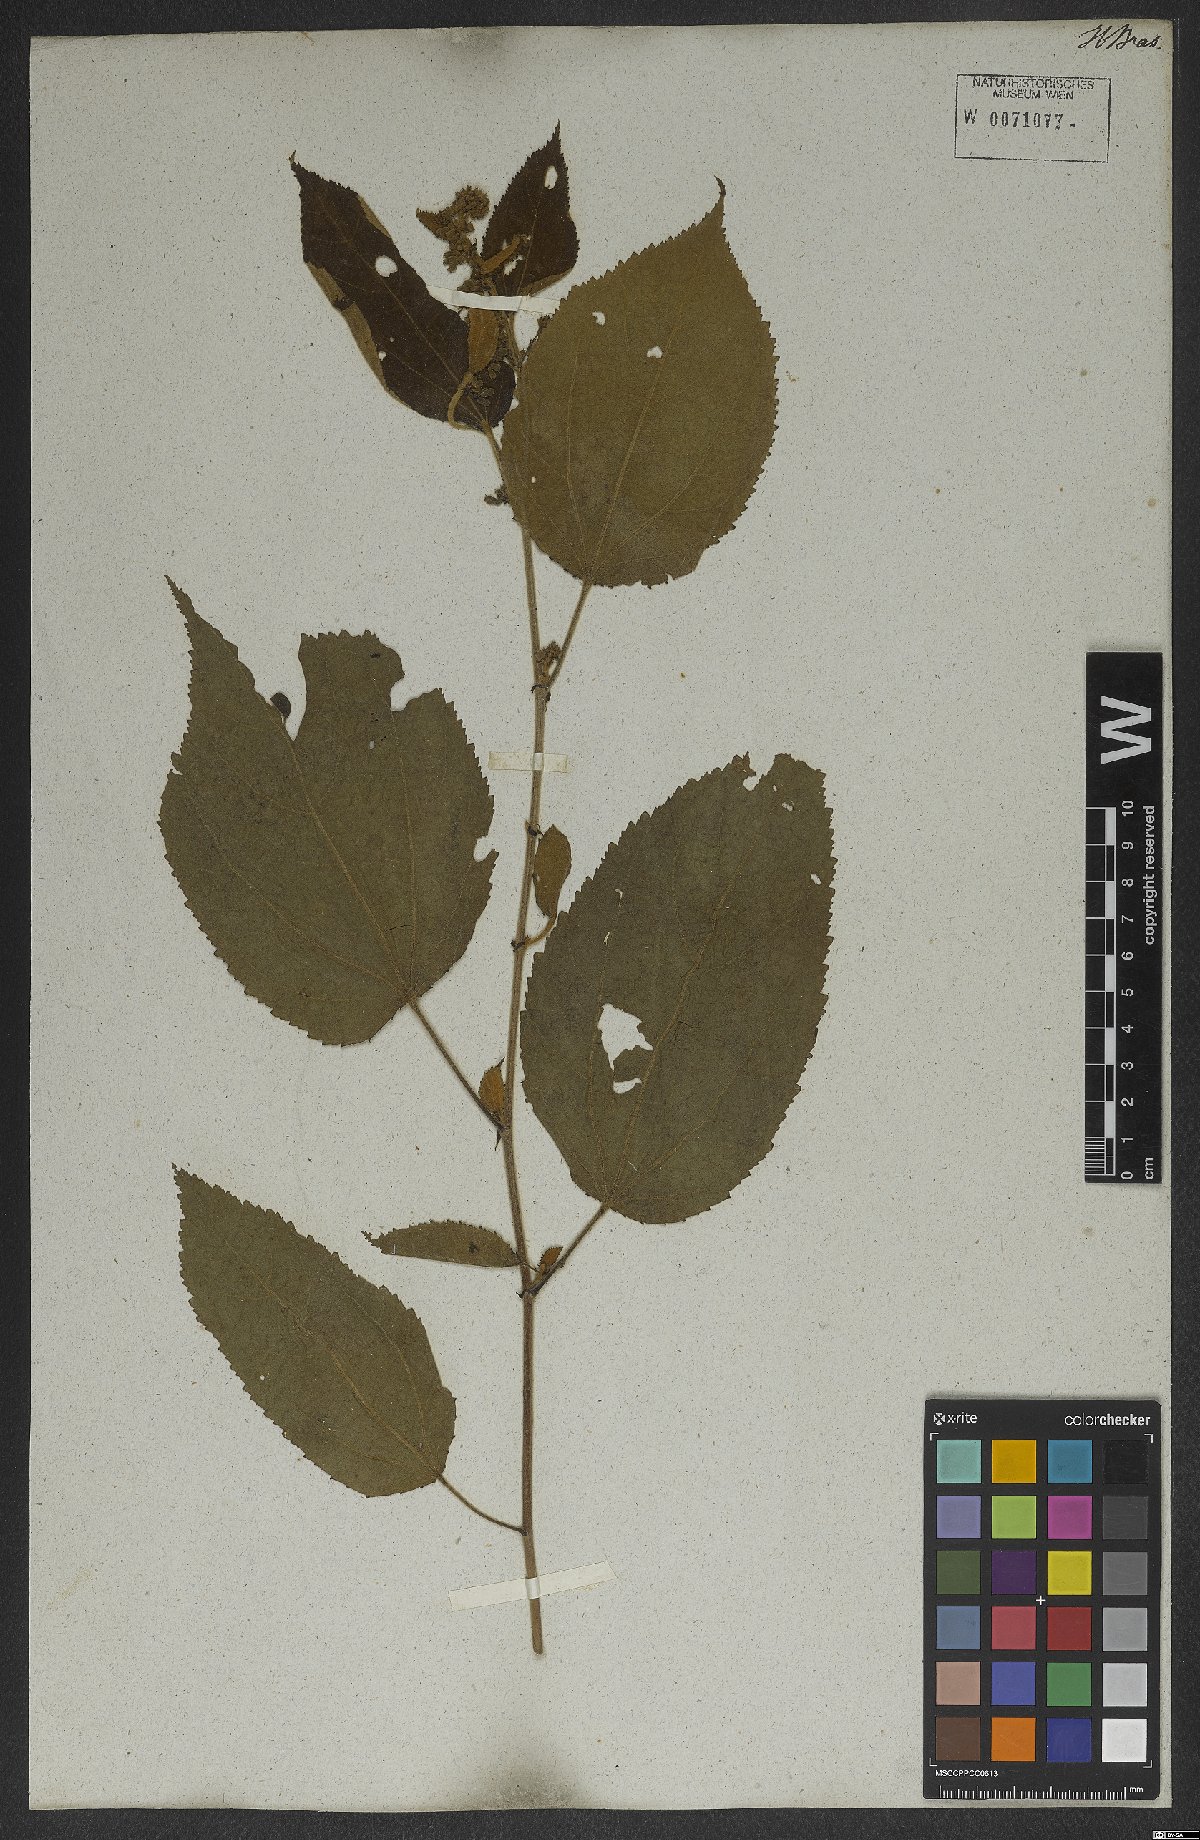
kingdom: Plantae
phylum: Tracheophyta
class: Magnoliopsida
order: Malvales
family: Malvaceae
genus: Triumfetta
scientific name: Triumfetta mollissima
